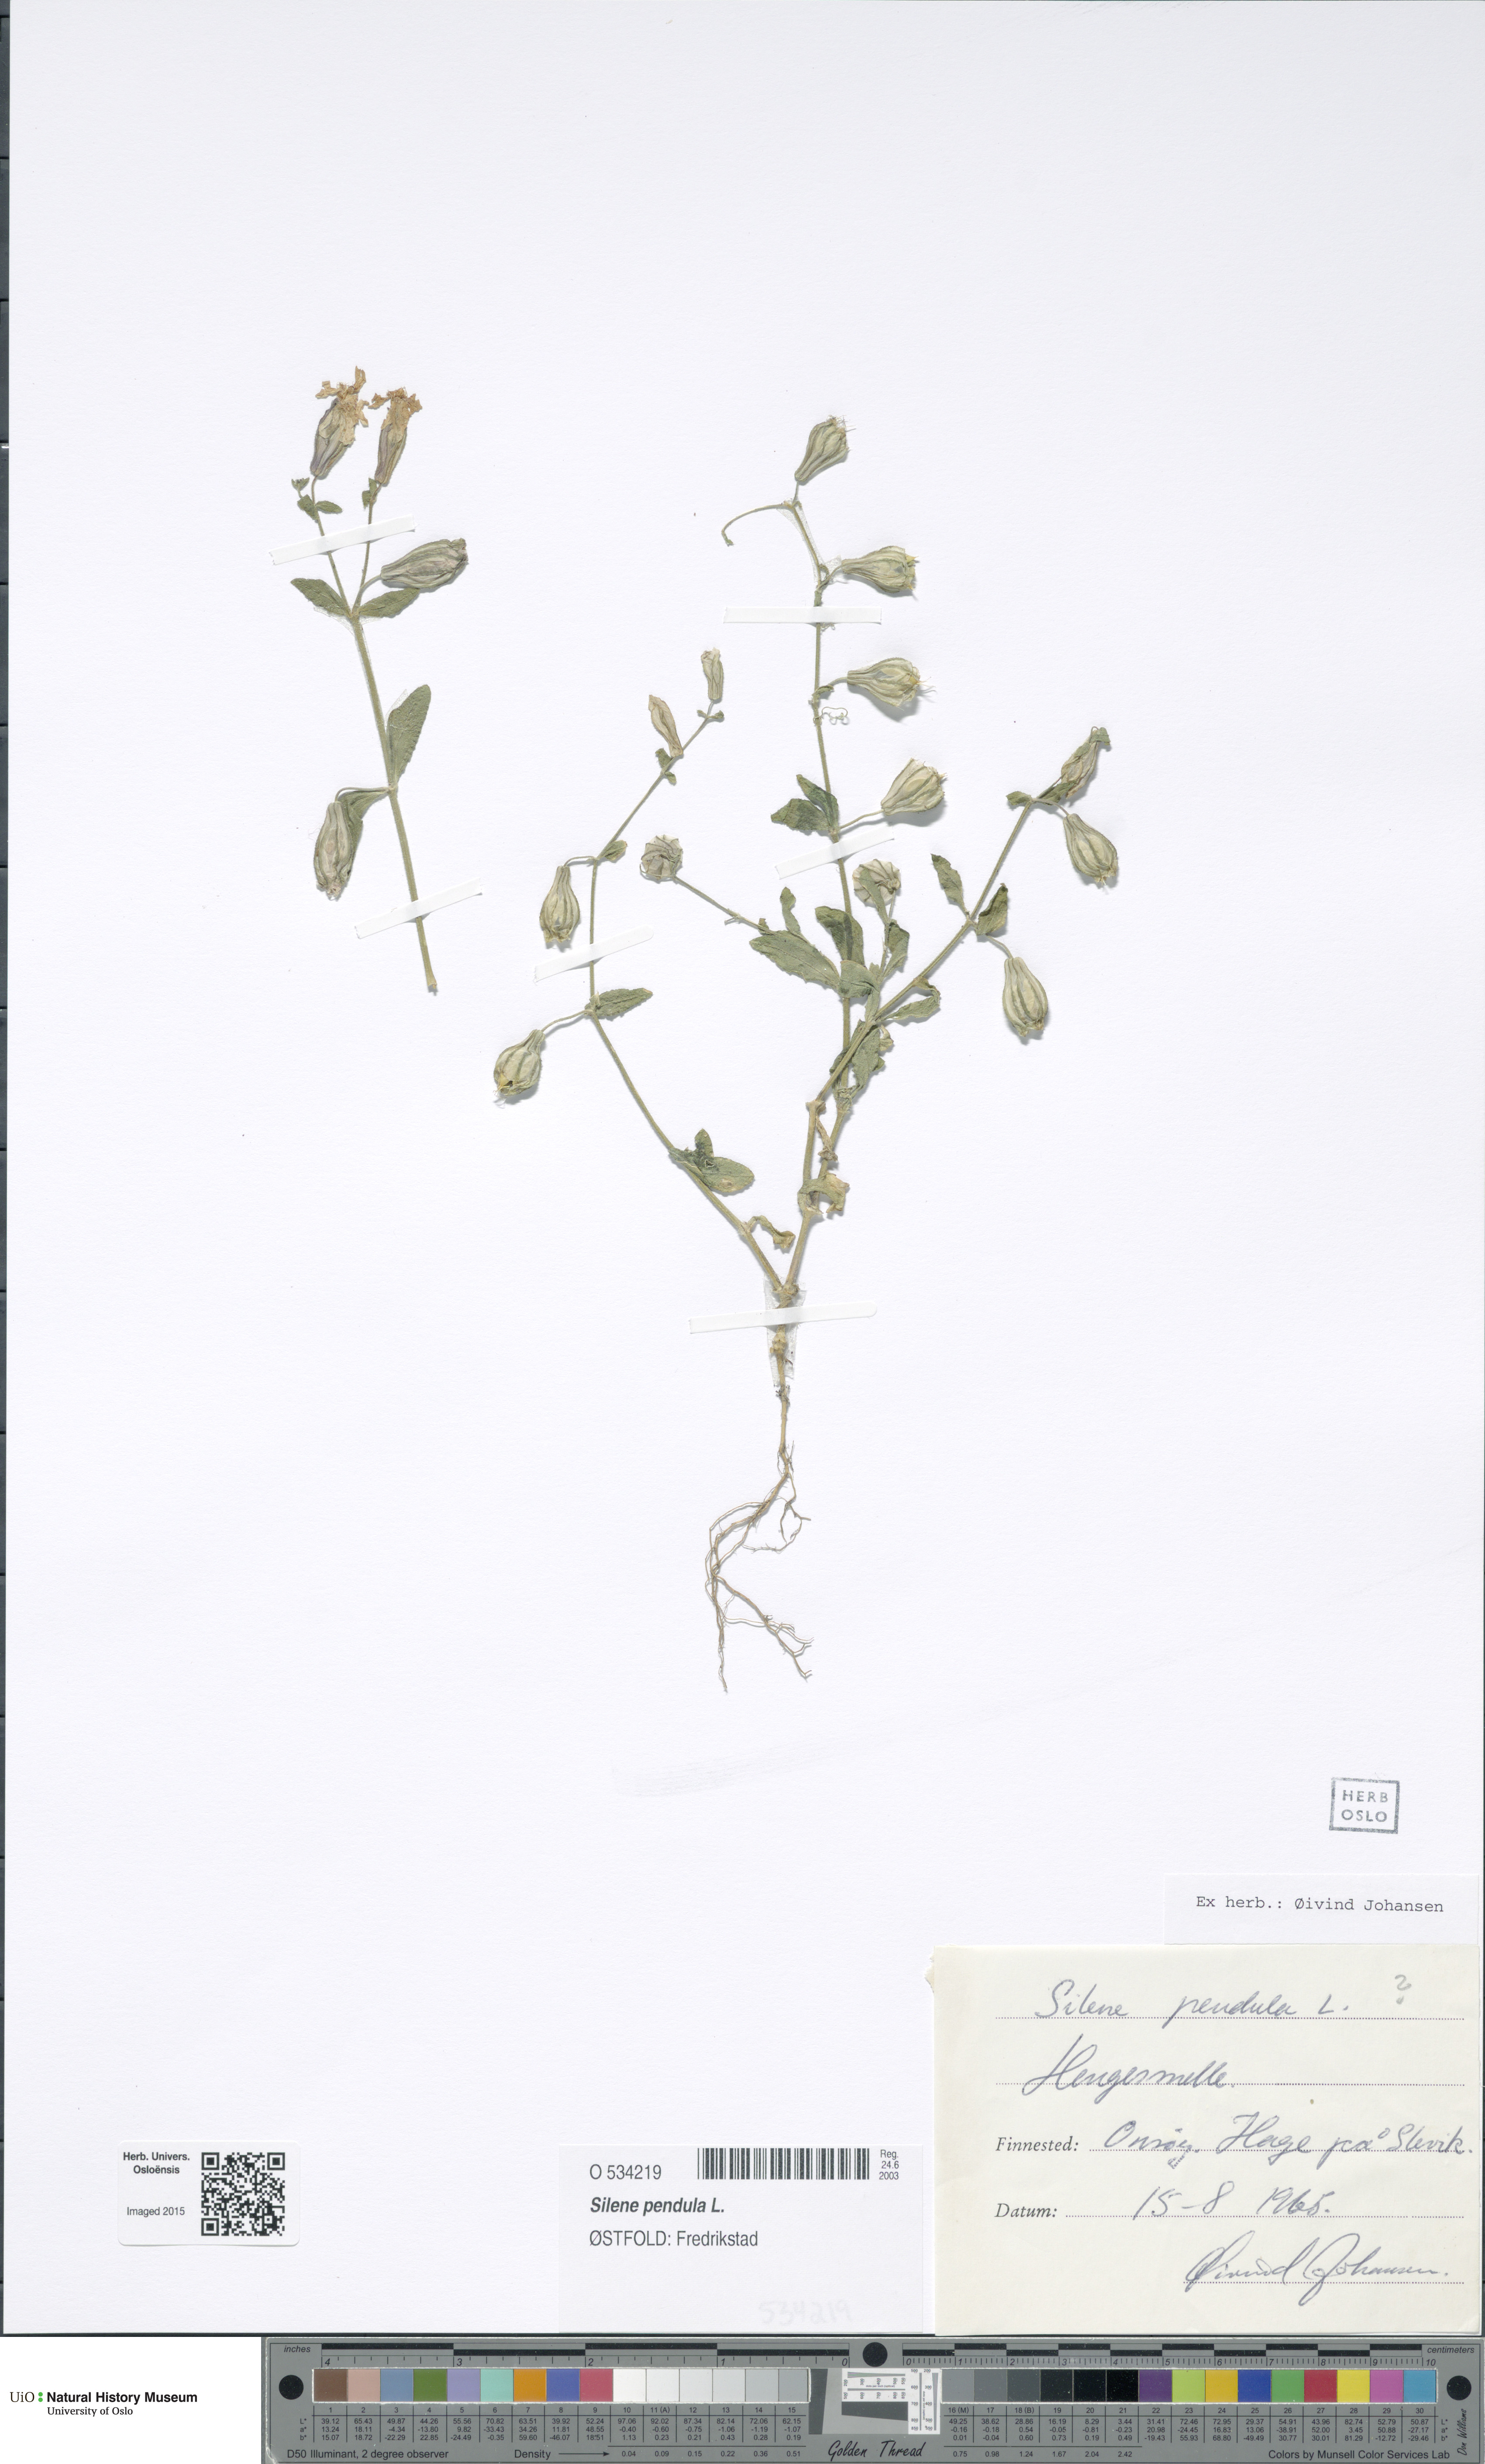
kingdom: Plantae
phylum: Tracheophyta
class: Magnoliopsida
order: Caryophyllales
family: Caryophyllaceae
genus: Silene
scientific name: Silene pendula
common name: Nodding catchfly
